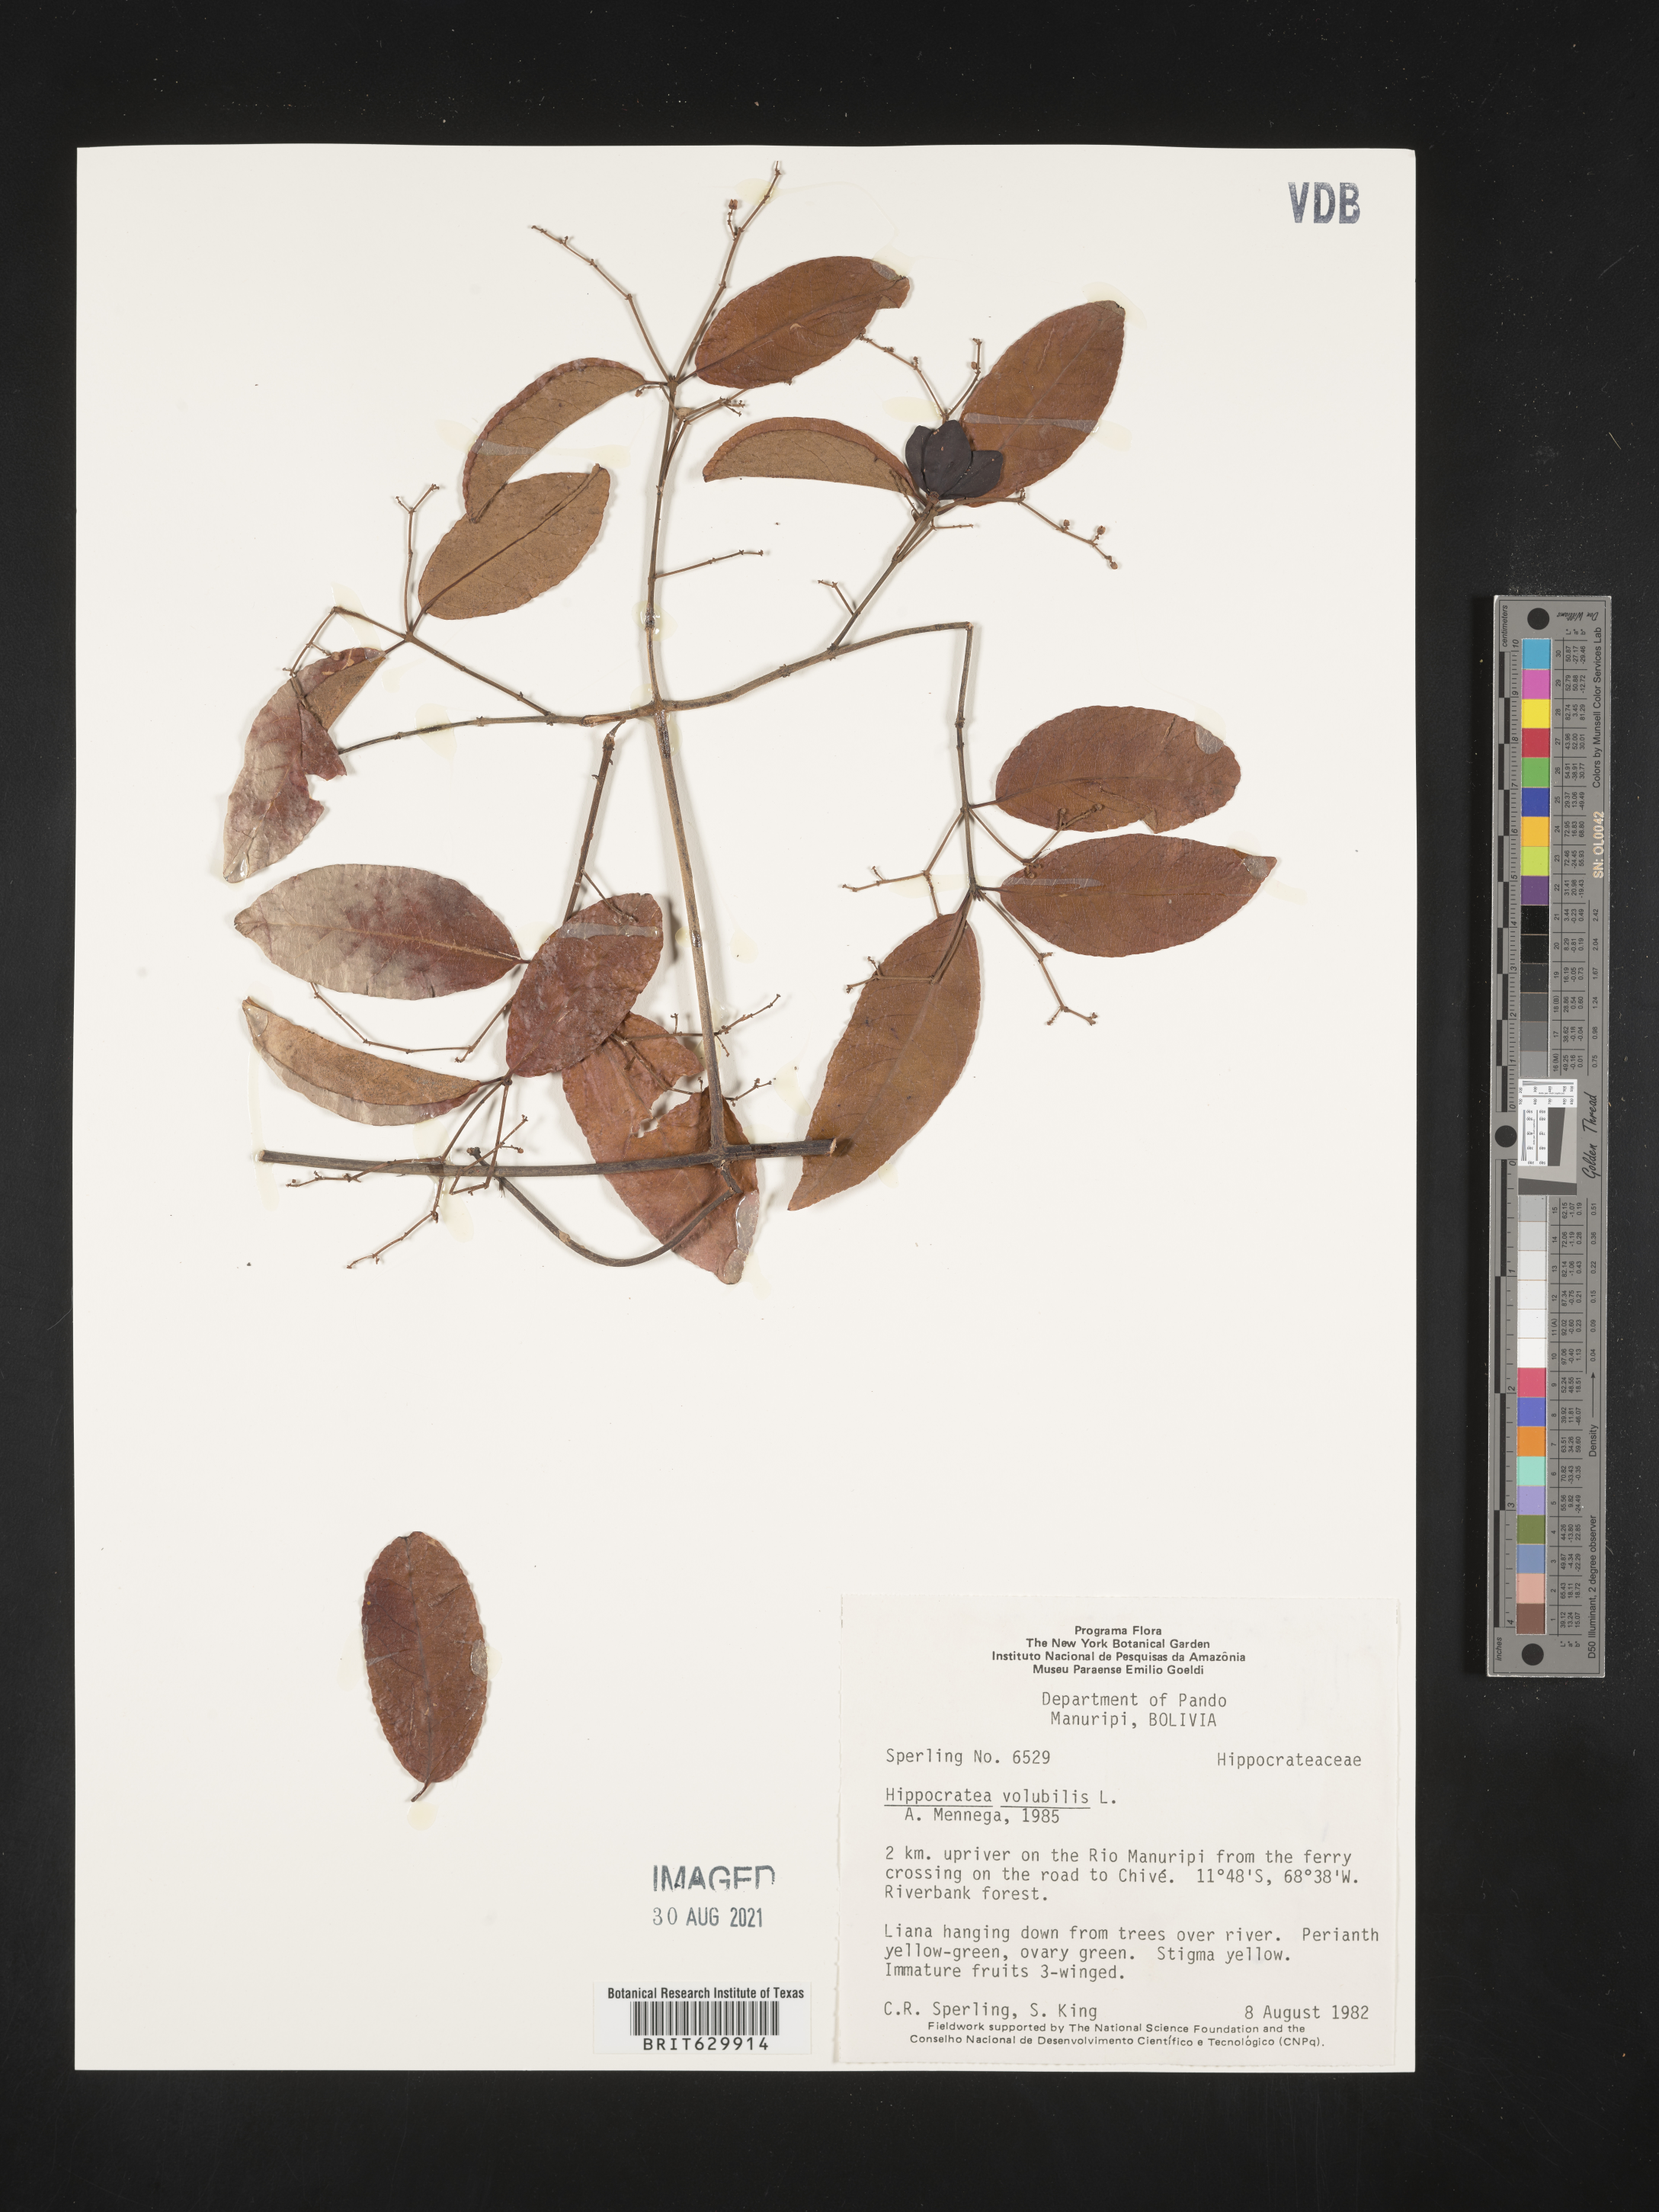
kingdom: Plantae
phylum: Tracheophyta
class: Magnoliopsida
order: Celastrales
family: Celastraceae
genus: Hippocratea
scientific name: Hippocratea volubilis
